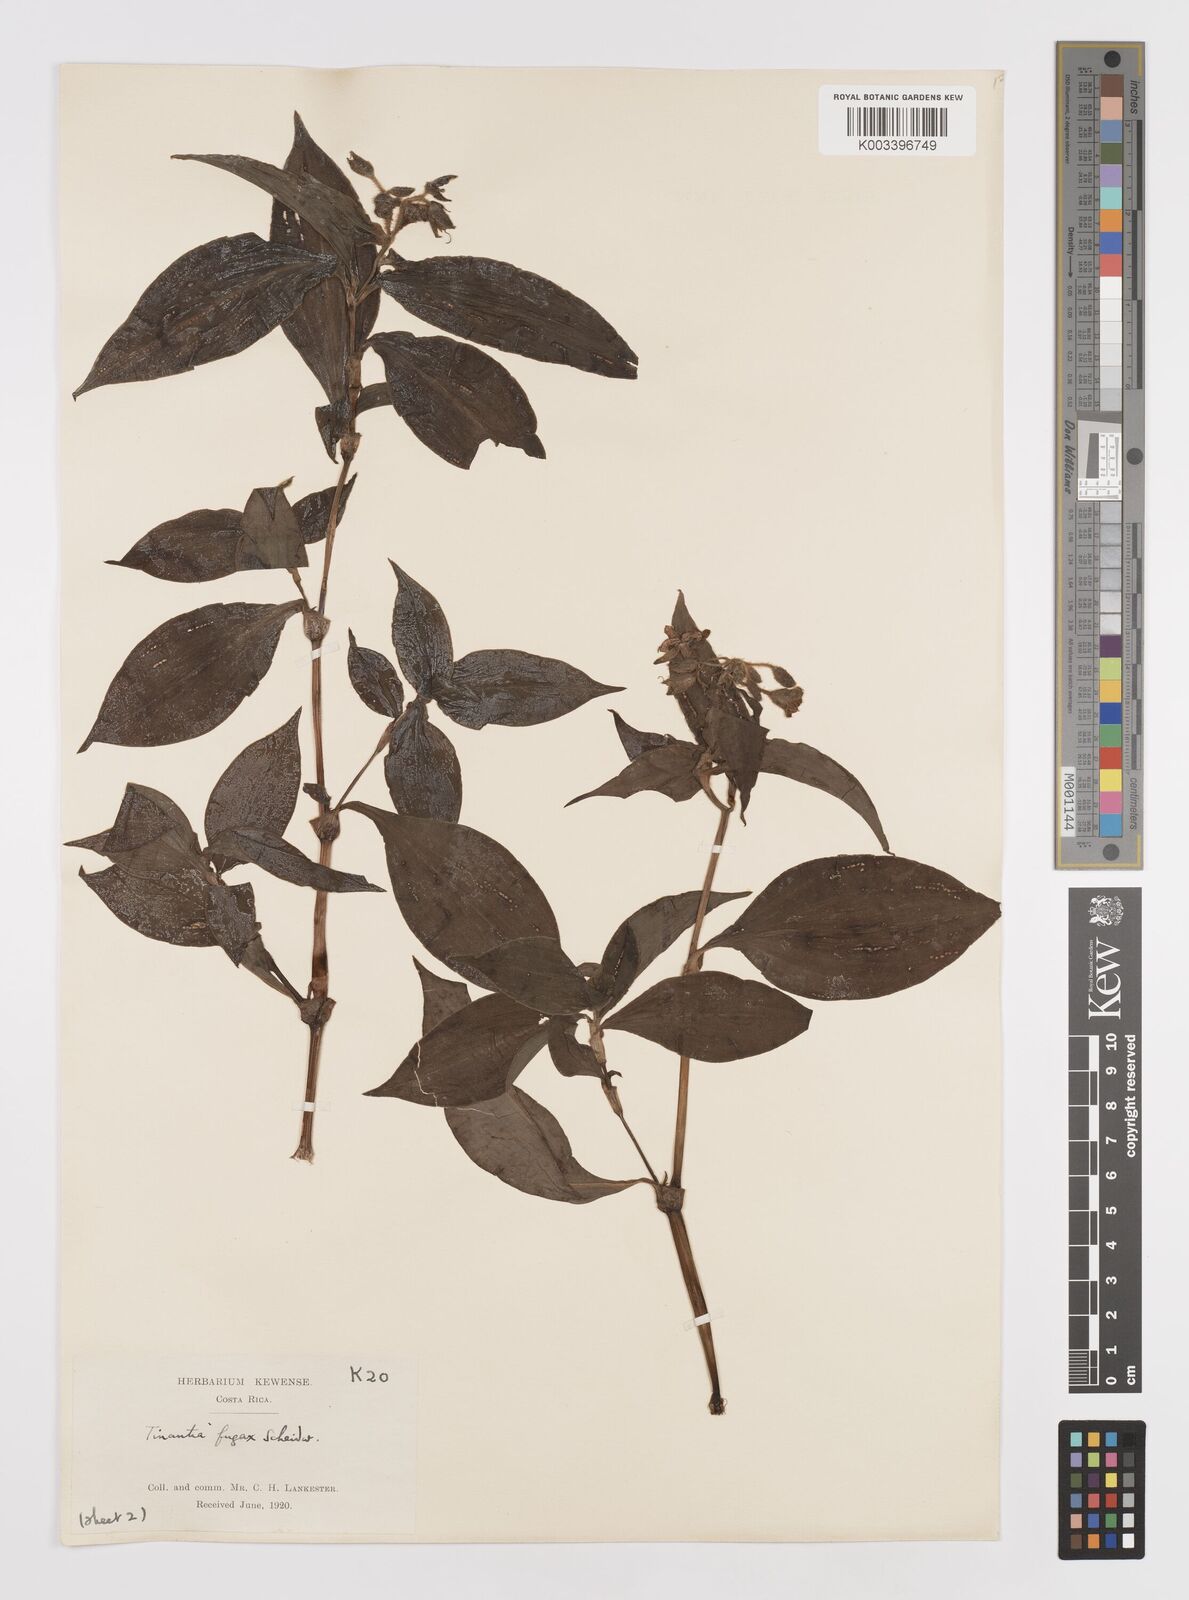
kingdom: Plantae
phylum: Tracheophyta
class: Liliopsida
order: Commelinales
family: Commelinaceae
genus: Tinantia
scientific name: Tinantia erecta
